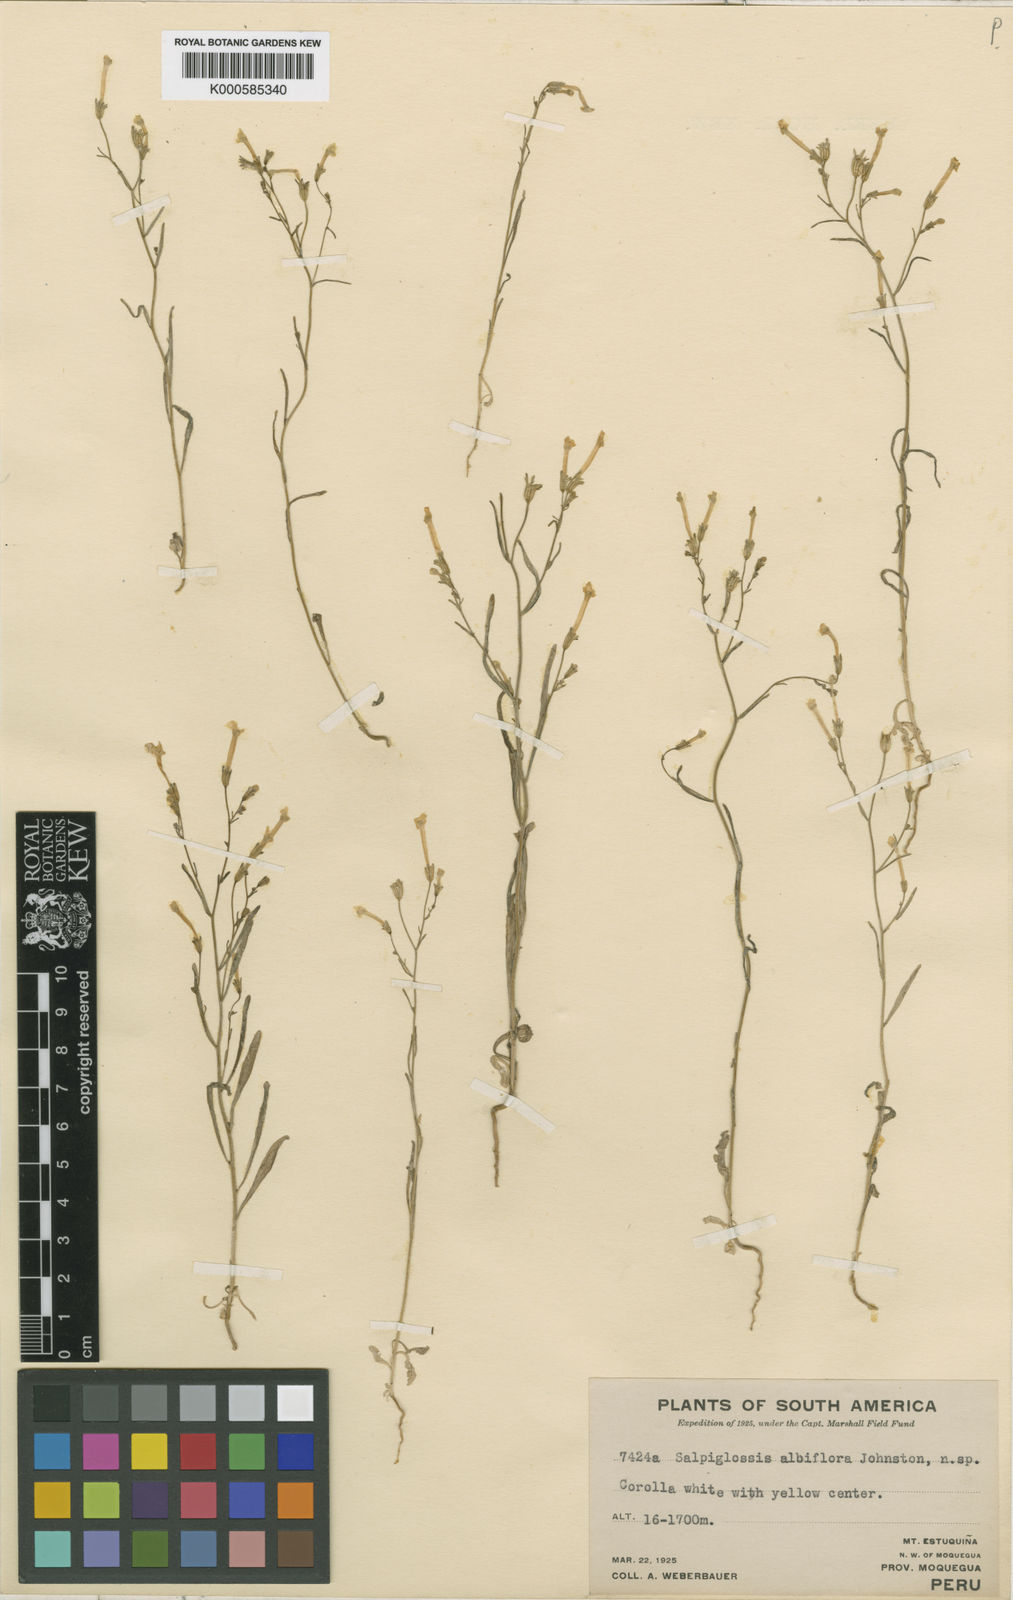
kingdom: Plantae
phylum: Tracheophyta
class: Magnoliopsida
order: Solanales
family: Solanaceae
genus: Leptoglossis
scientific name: Leptoglossis lomana
